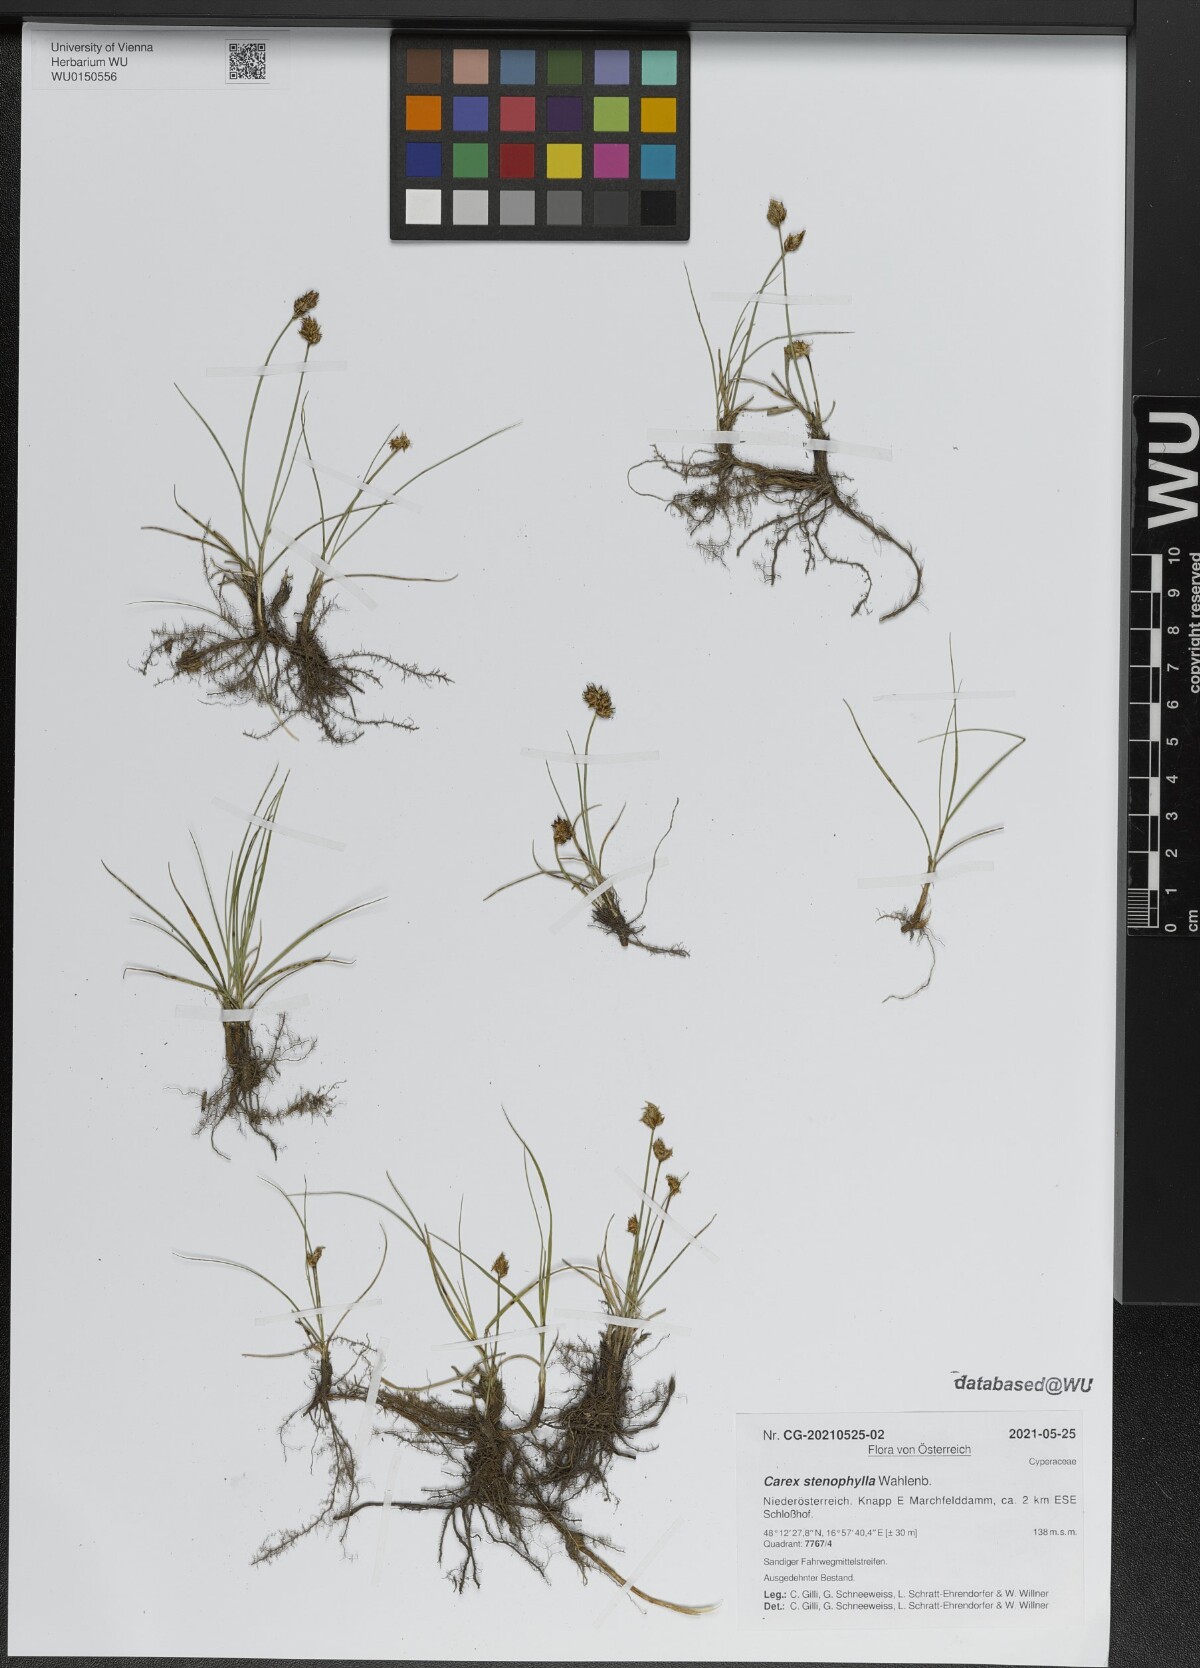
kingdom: Plantae
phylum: Tracheophyta
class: Liliopsida
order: Poales
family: Cyperaceae
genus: Carex
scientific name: Carex stenophylla
